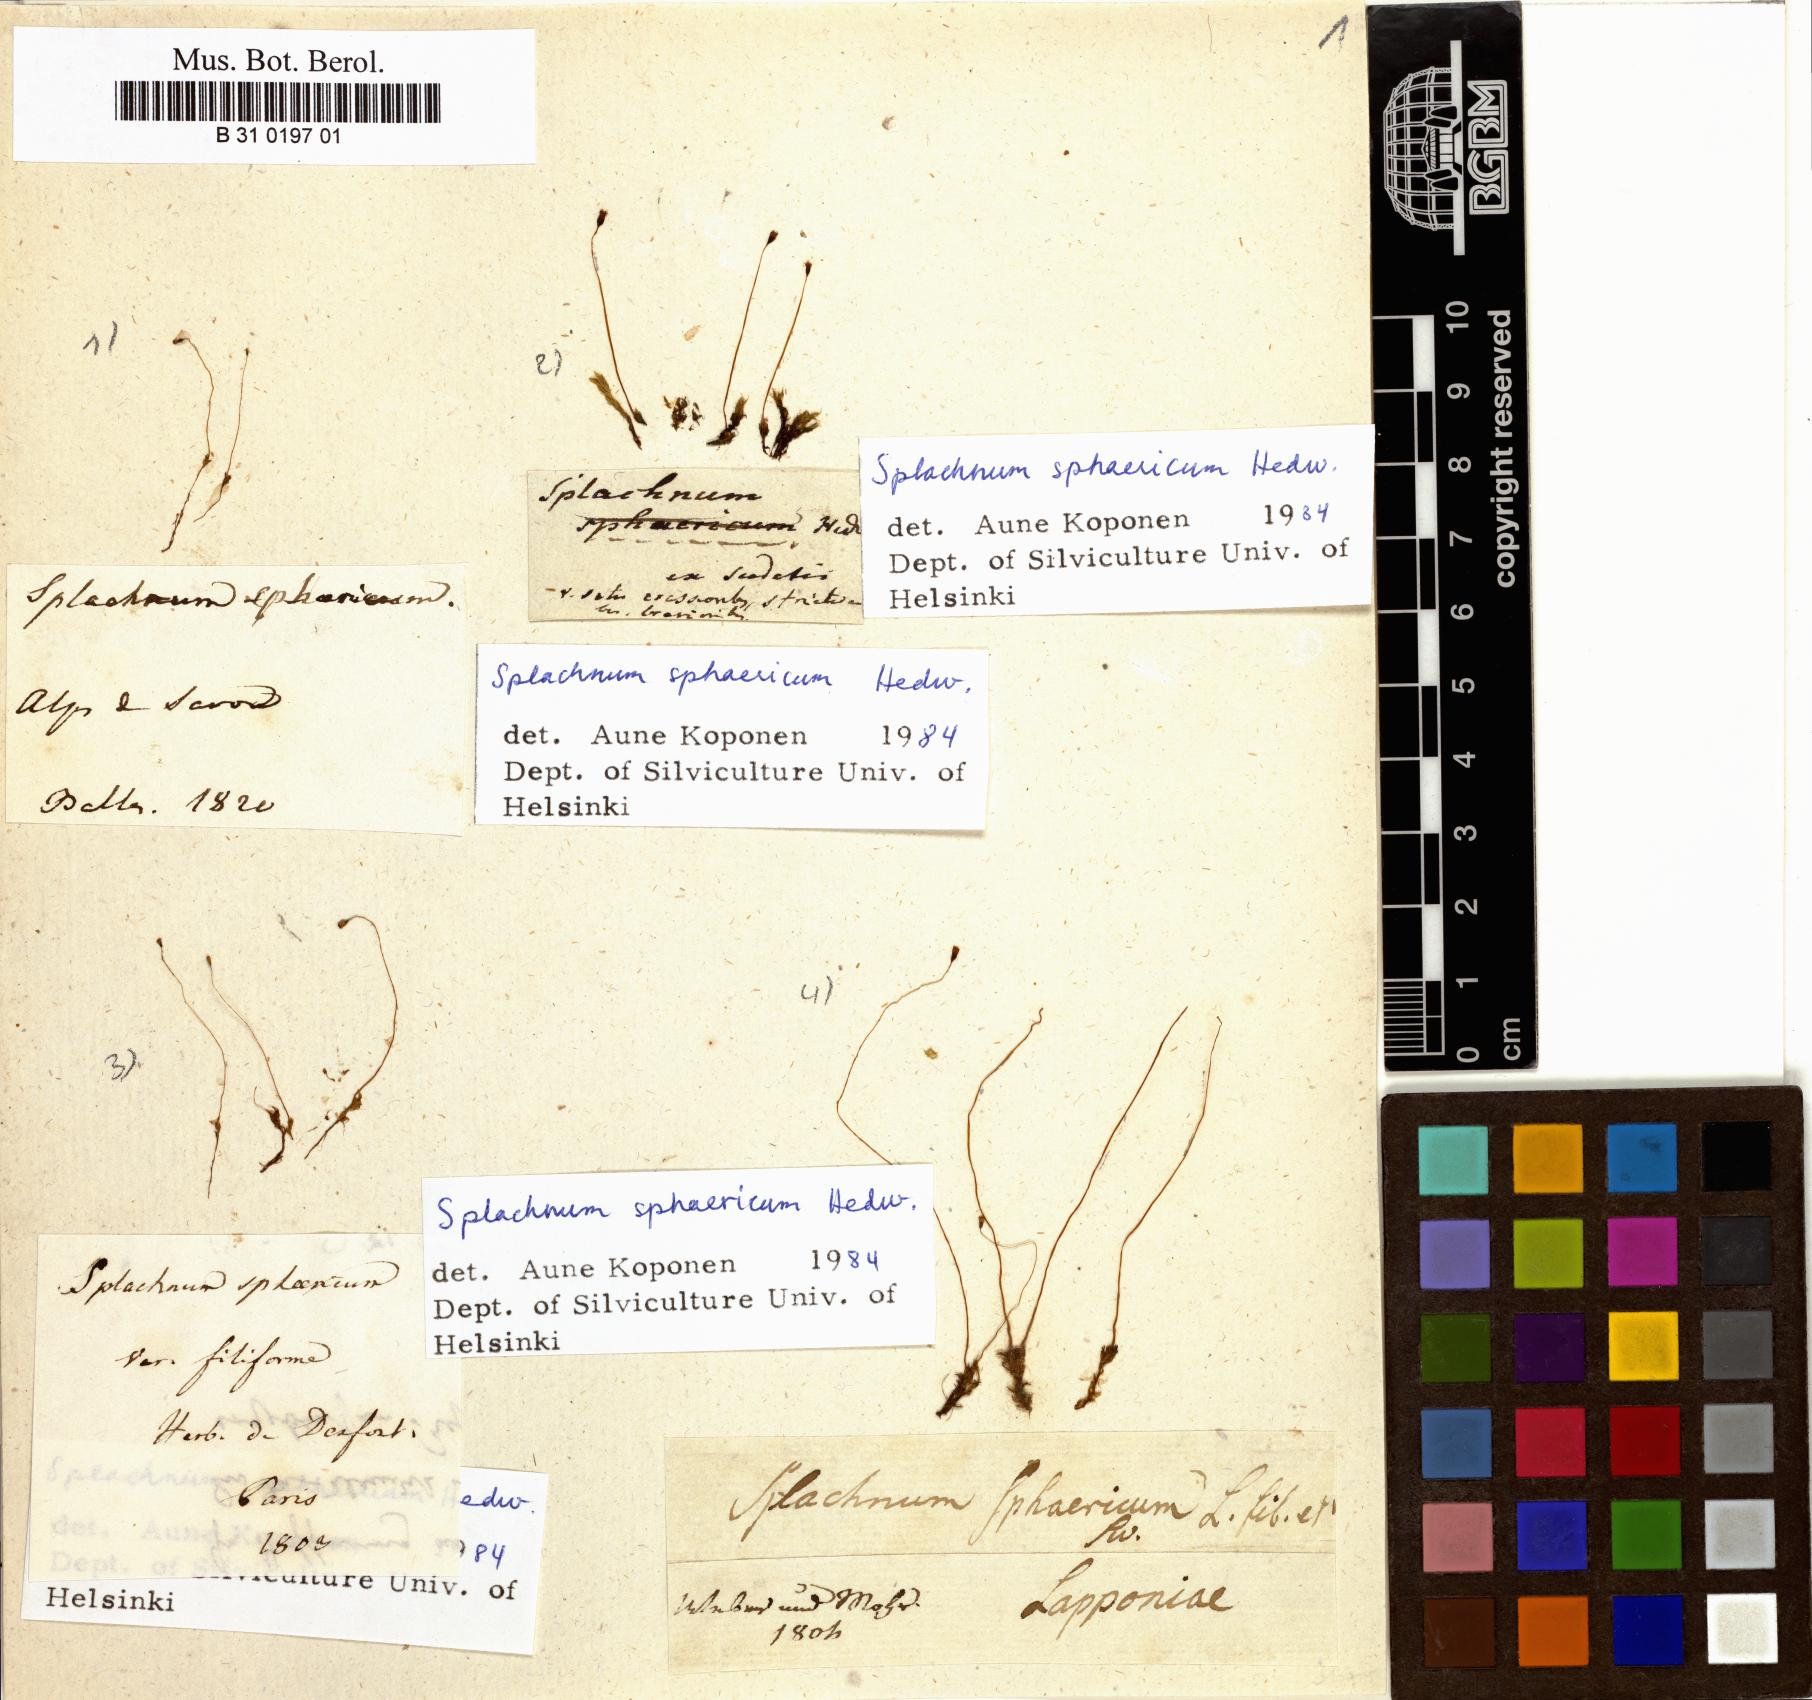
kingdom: Plantae
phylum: Bryophyta
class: Bryopsida
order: Splachnales
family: Splachnaceae
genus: Splachnum
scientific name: Splachnum sphaericum
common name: Round-fruited dung moss
